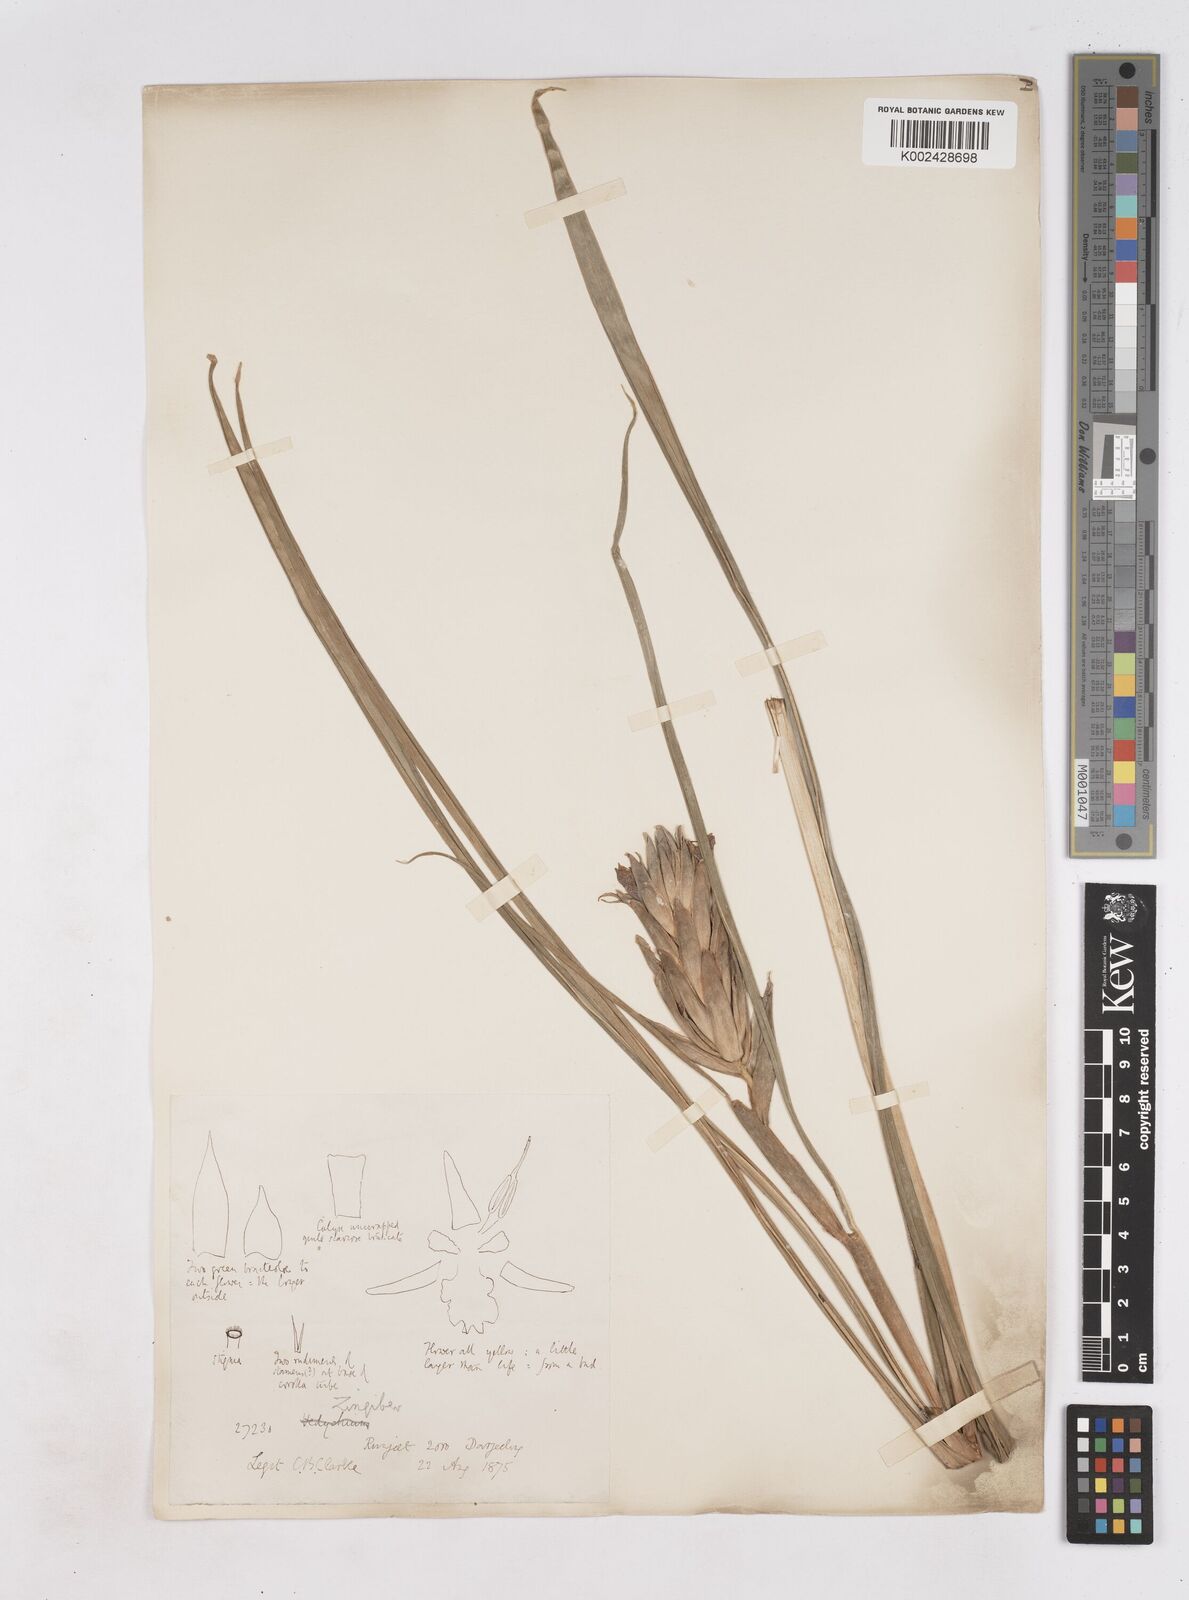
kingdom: Plantae
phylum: Tracheophyta
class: Liliopsida
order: Zingiberales
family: Zingiberaceae
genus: Zingiber
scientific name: Zingiber capitatum
